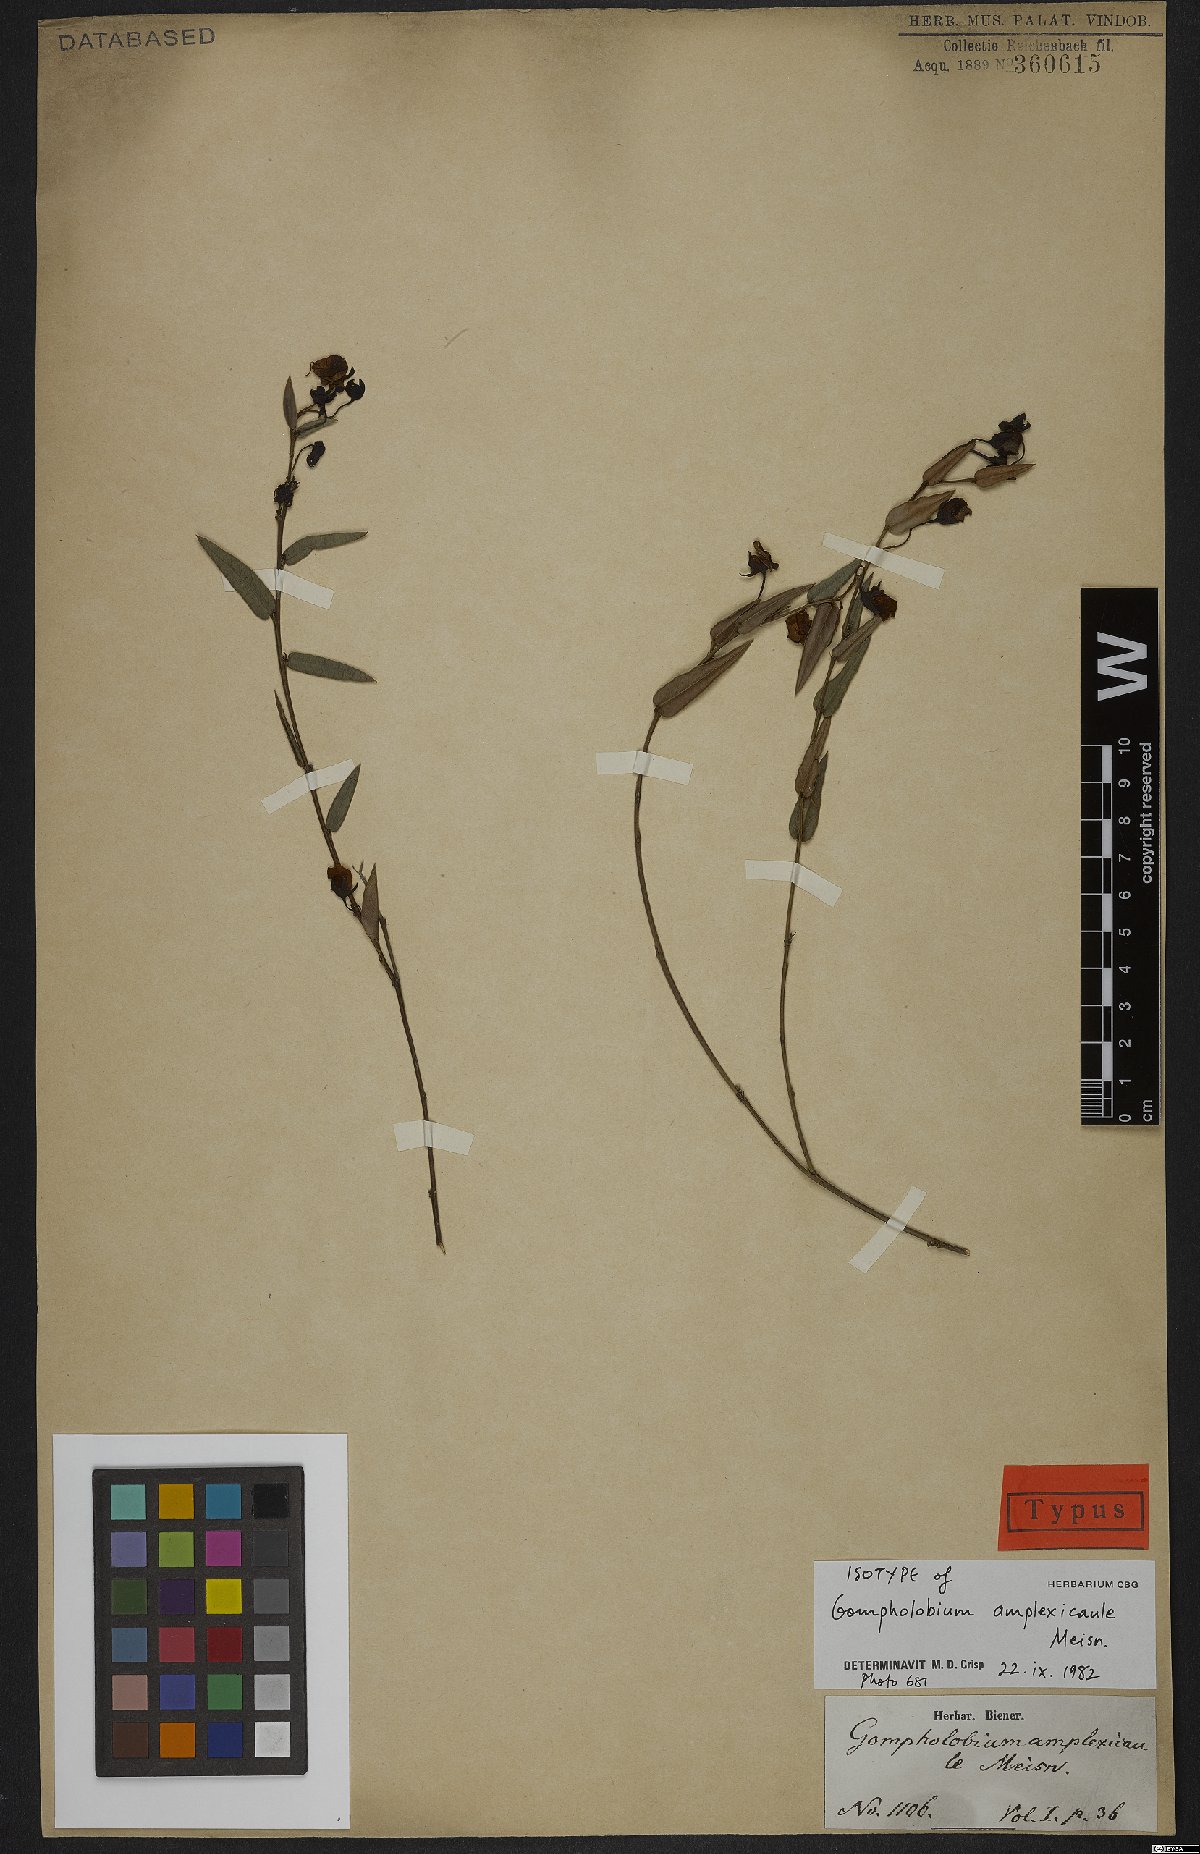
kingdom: Plantae
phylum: Tracheophyta
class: Magnoliopsida
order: Fabales
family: Fabaceae
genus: Gompholobium
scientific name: Gompholobium ovatum
